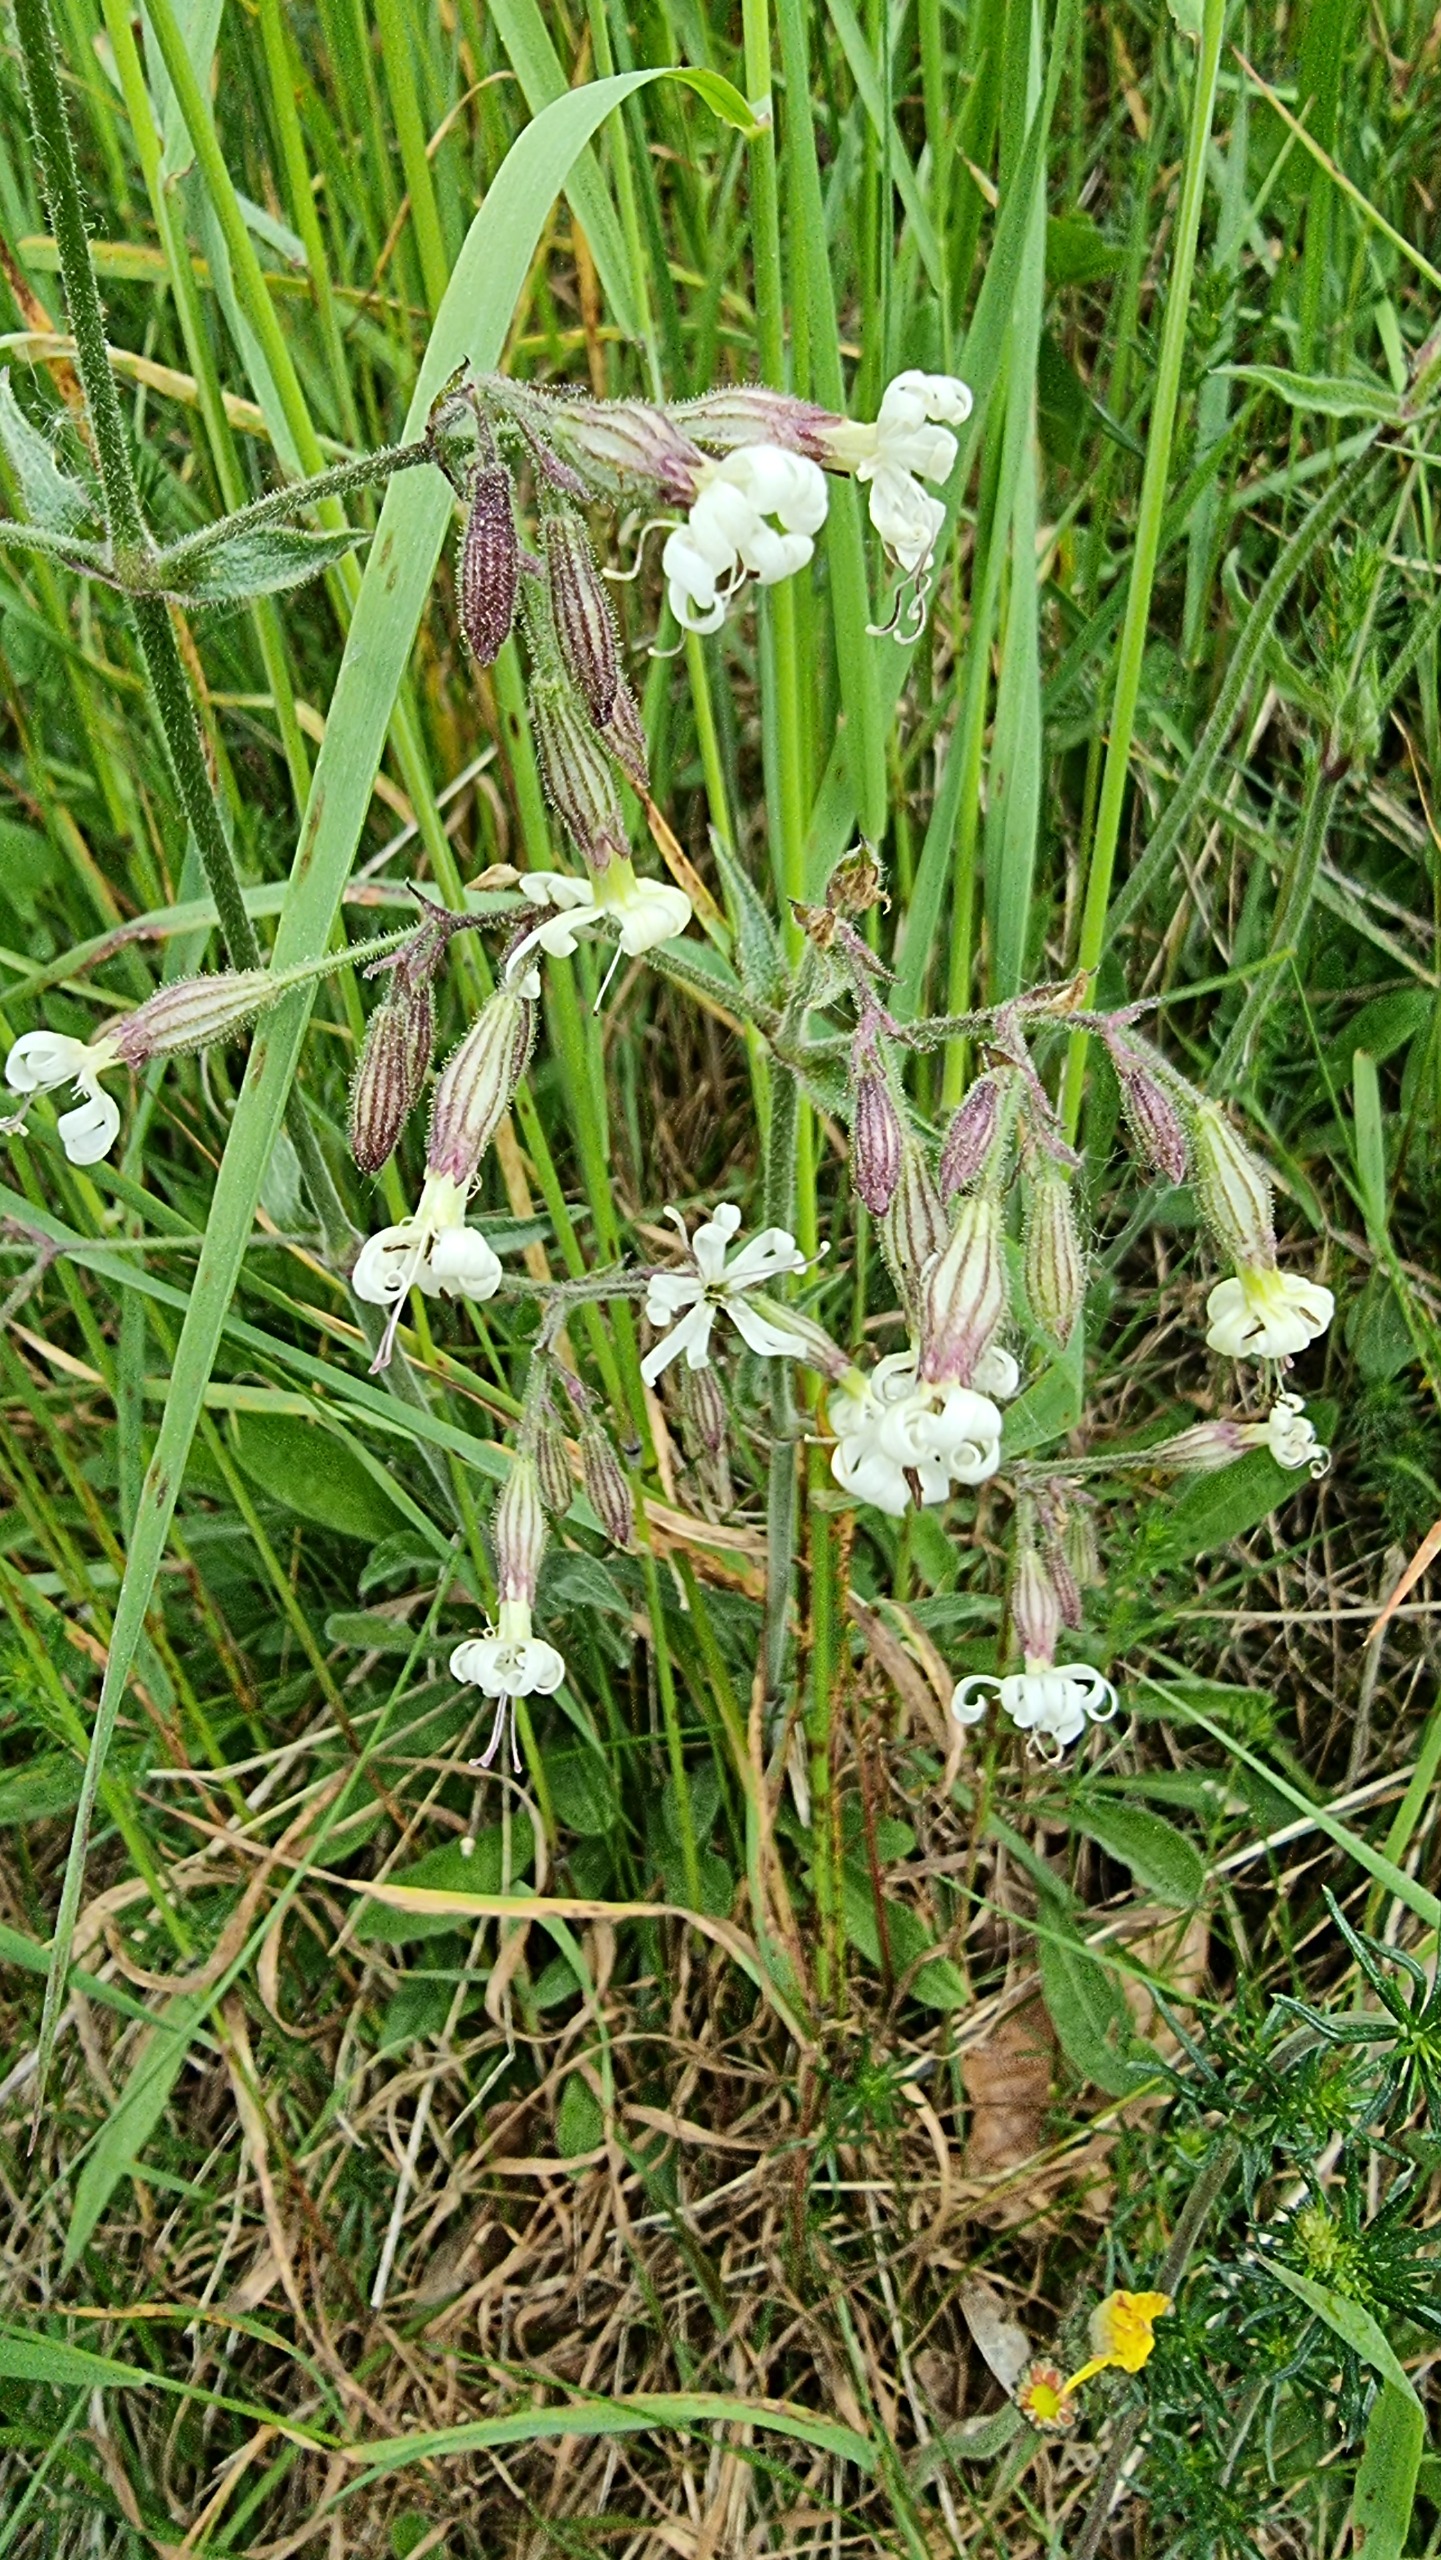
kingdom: Plantae
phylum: Tracheophyta
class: Magnoliopsida
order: Caryophyllales
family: Caryophyllaceae
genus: Silene
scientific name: Silene nutans
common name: Nikkende limurt
